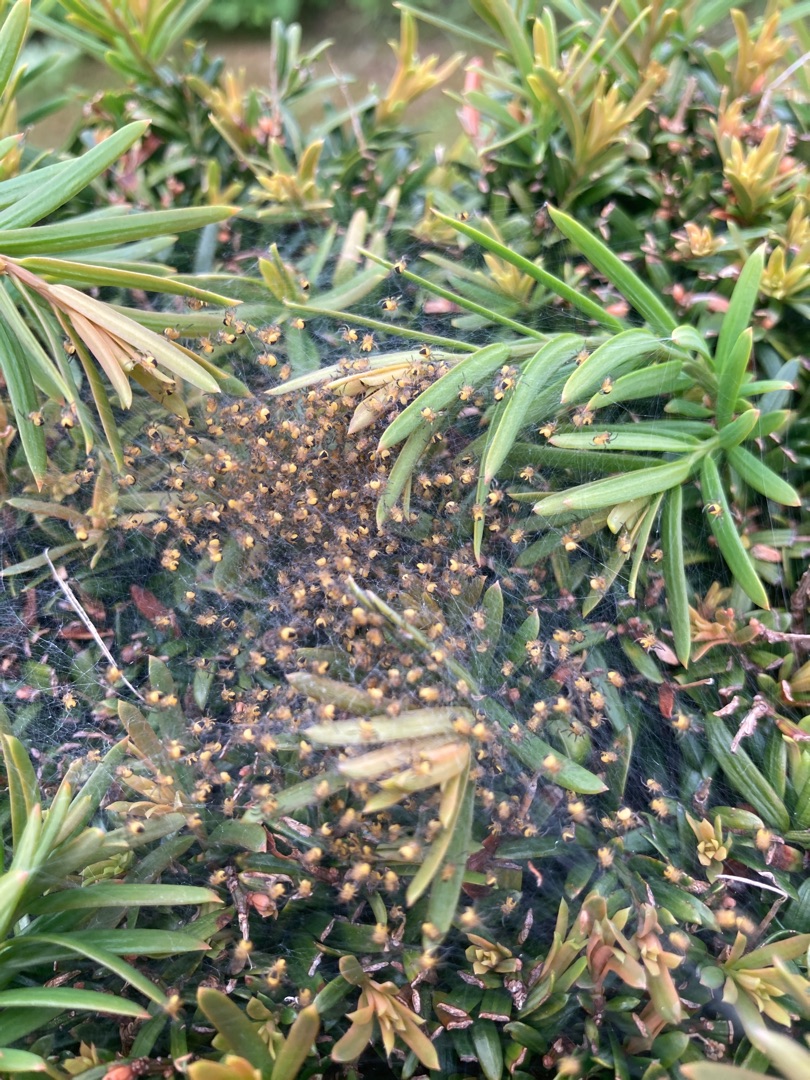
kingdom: Animalia
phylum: Arthropoda
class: Arachnida
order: Araneae
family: Araneidae
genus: Araneus
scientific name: Araneus diadematus
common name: Korsedderkop
